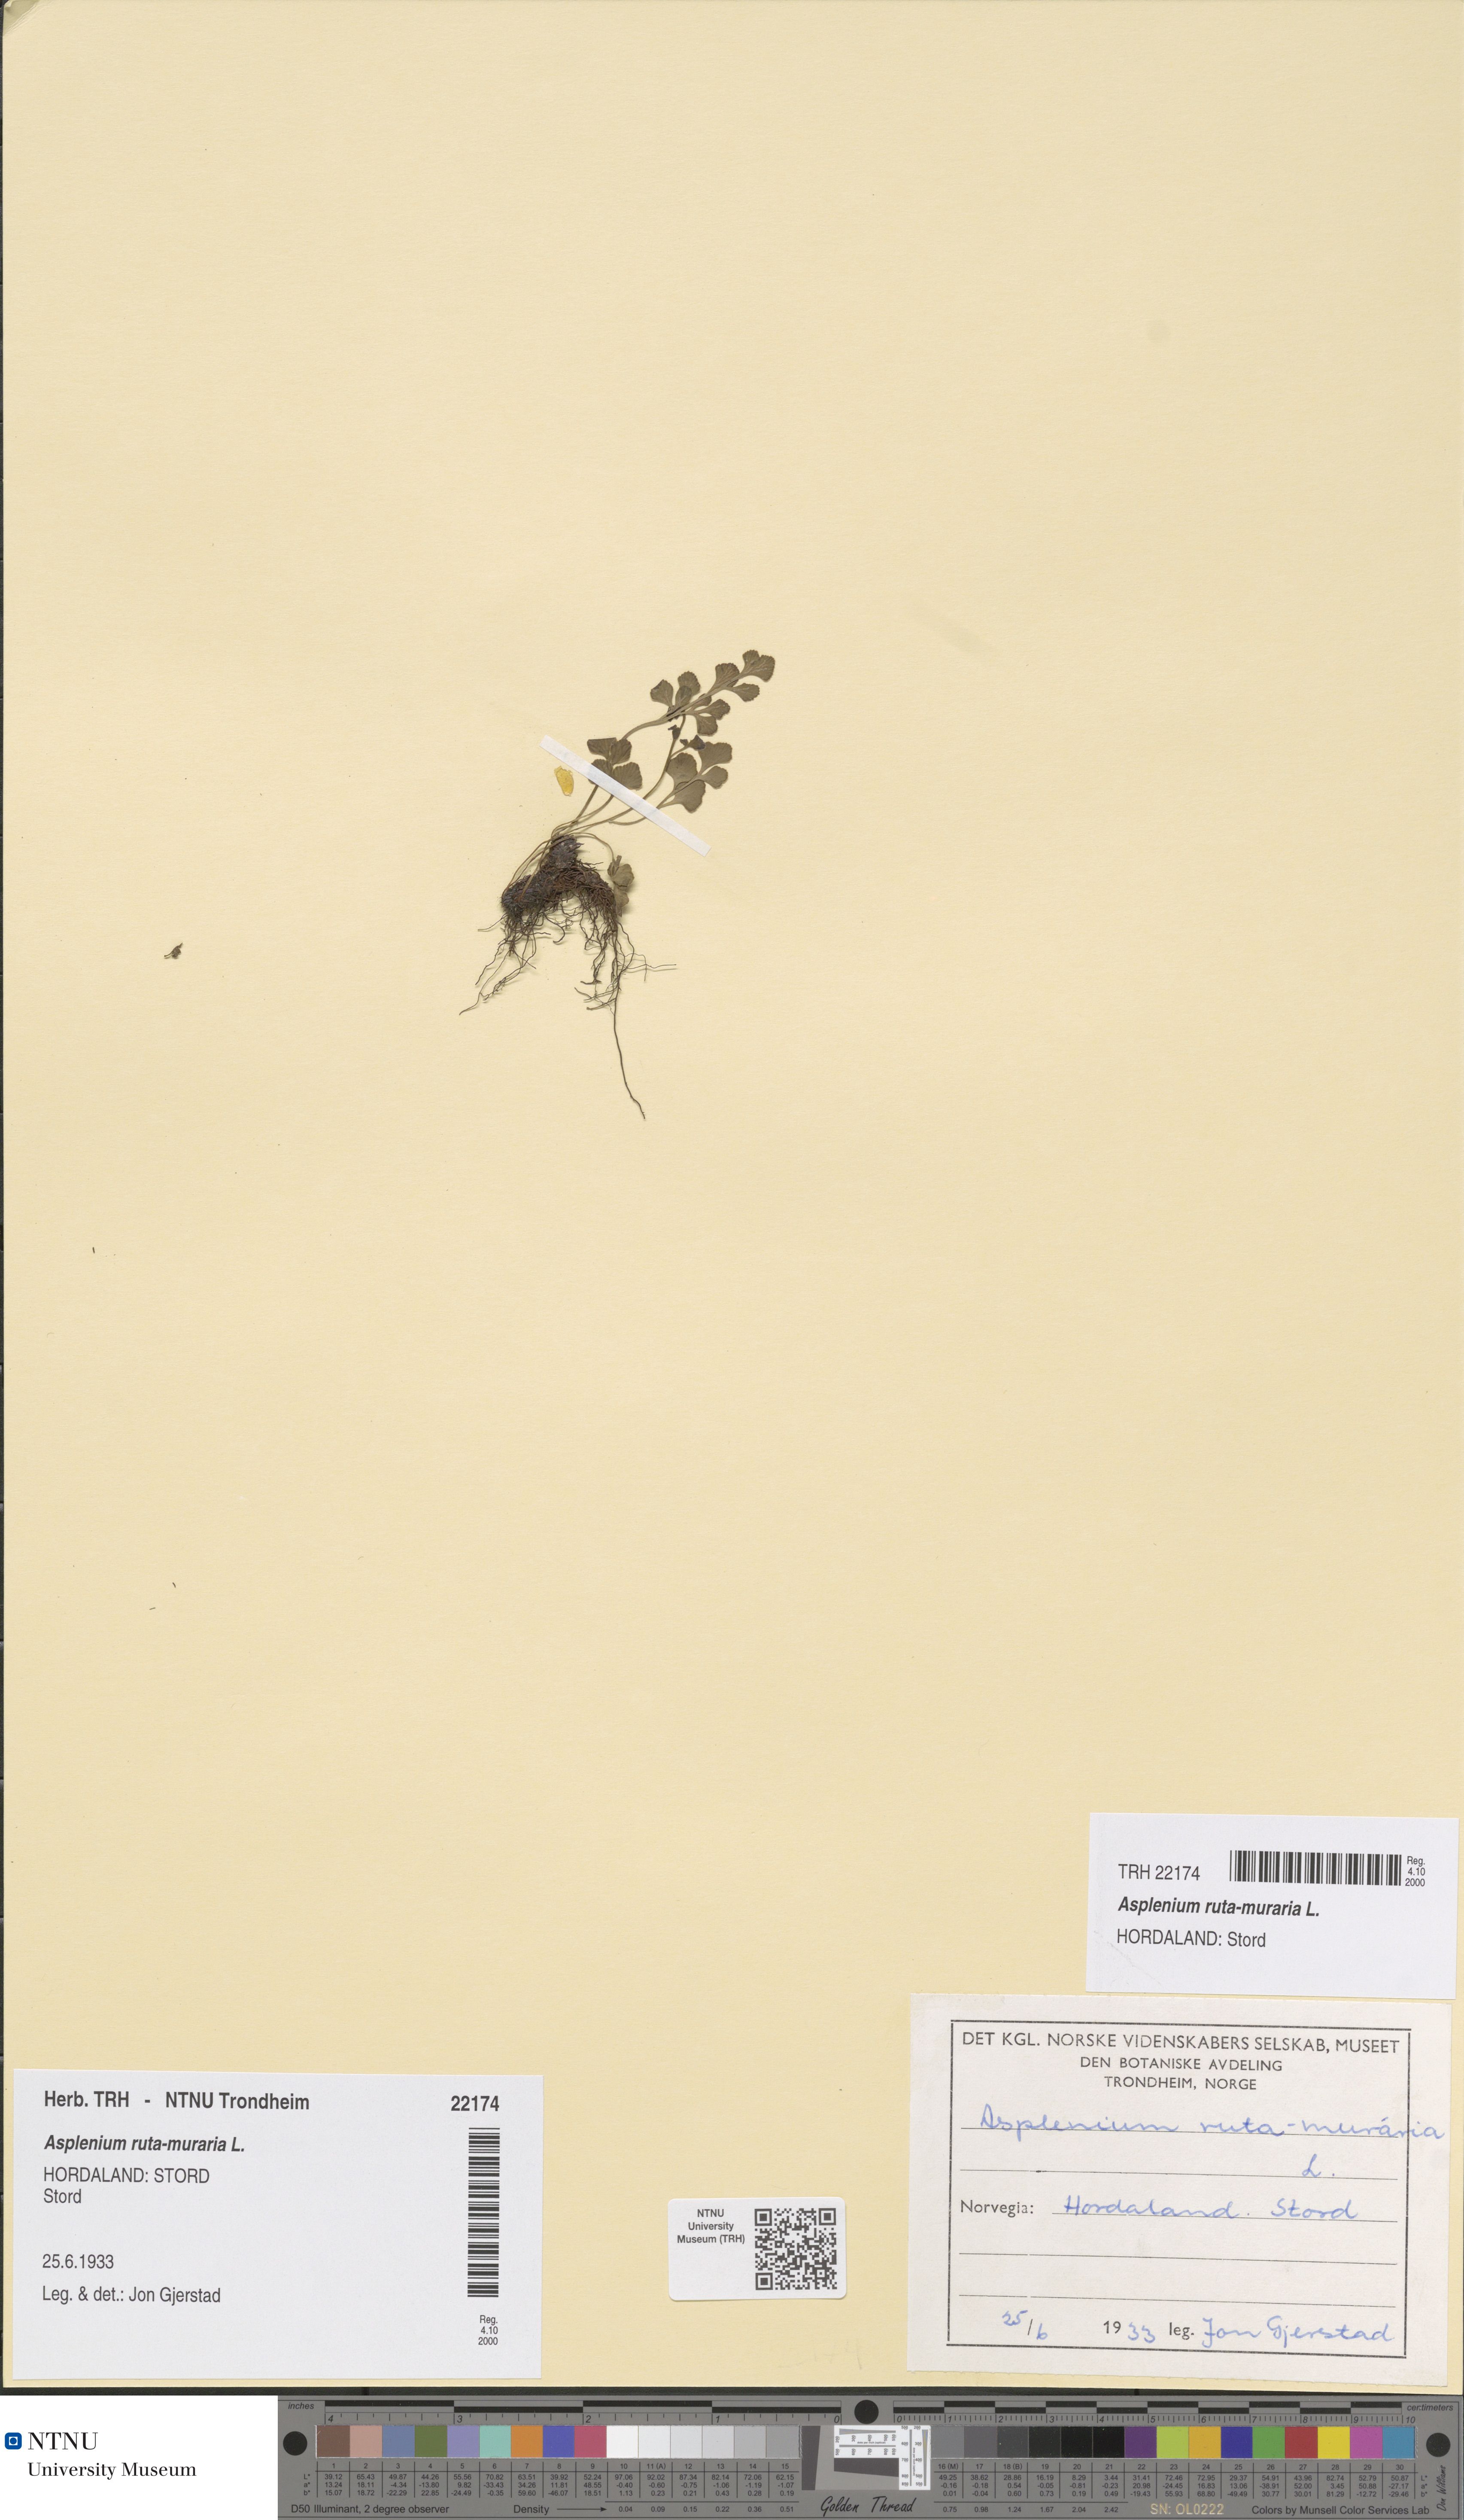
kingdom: Plantae
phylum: Tracheophyta
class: Polypodiopsida
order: Polypodiales
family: Aspleniaceae
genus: Asplenium
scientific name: Asplenium ruta-muraria
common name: Wall-rue
